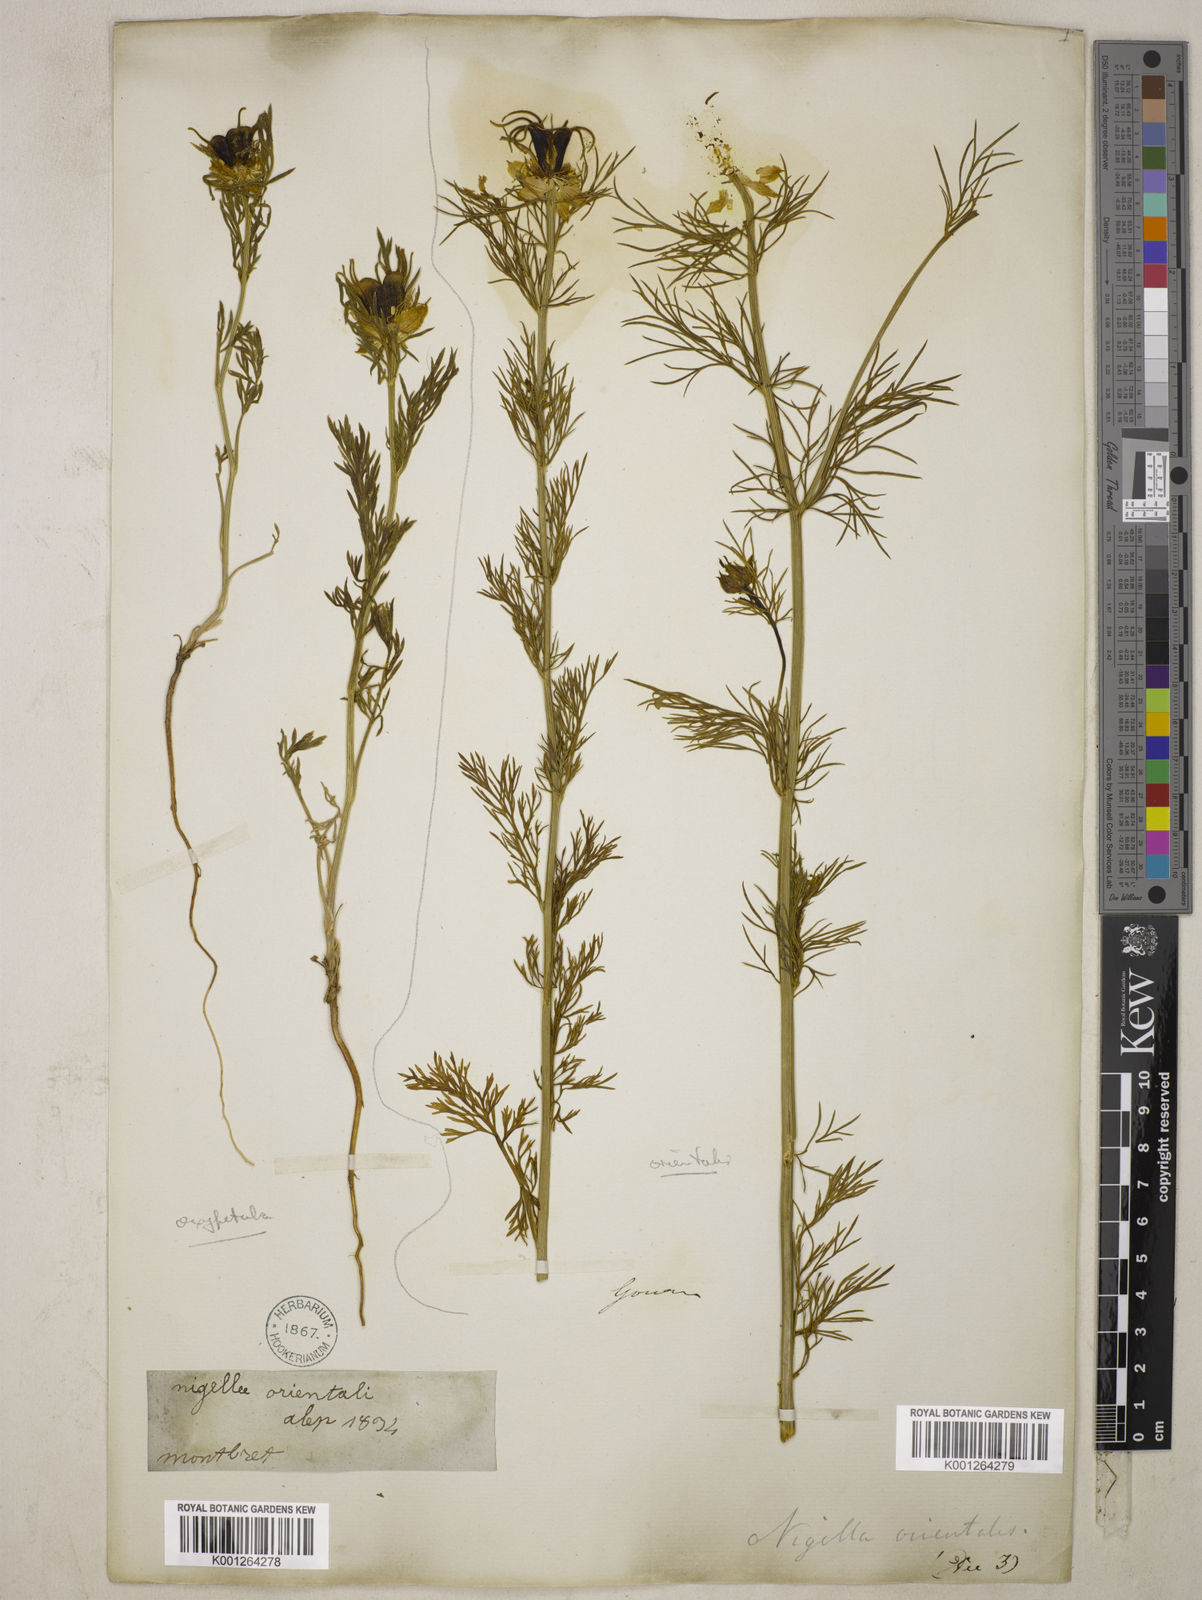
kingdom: Plantae
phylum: Tracheophyta
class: Magnoliopsida
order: Ranunculales
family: Ranunculaceae
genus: Nigella
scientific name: Nigella oxypetala
